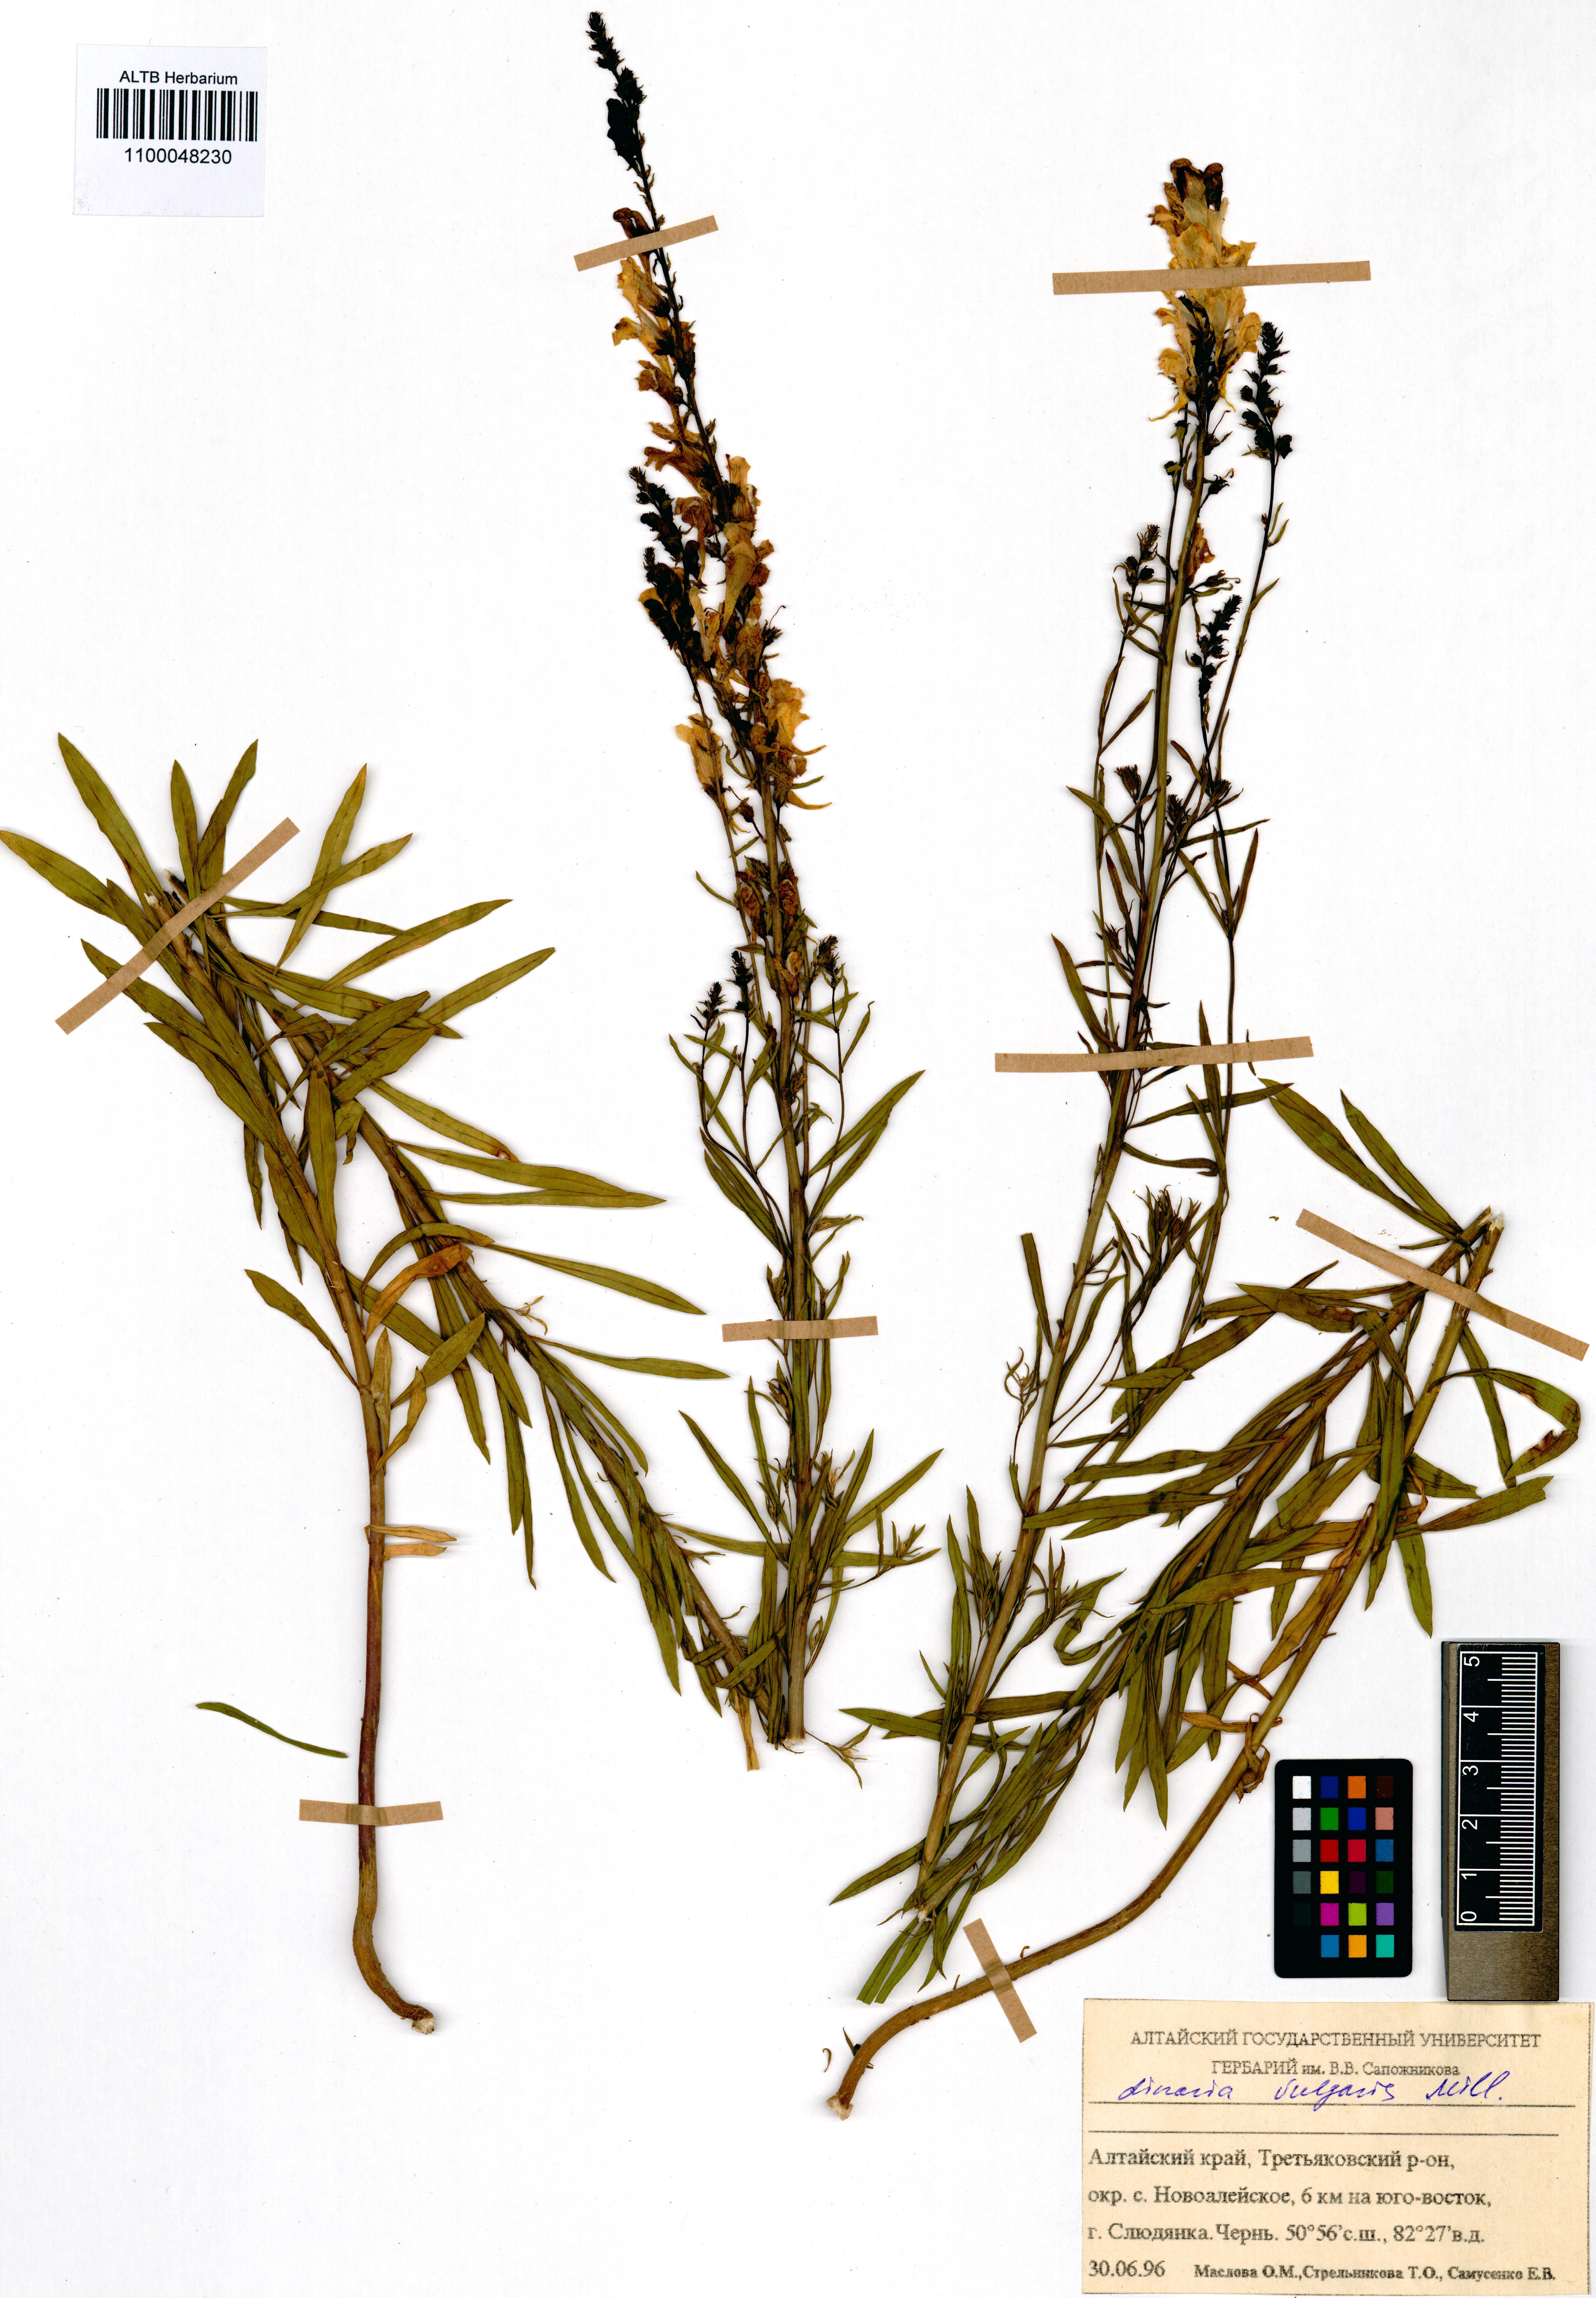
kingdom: Plantae
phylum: Tracheophyta
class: Magnoliopsida
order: Lamiales
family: Plantaginaceae
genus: Linaria
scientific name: Linaria vulgaris
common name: Butter and eggs
